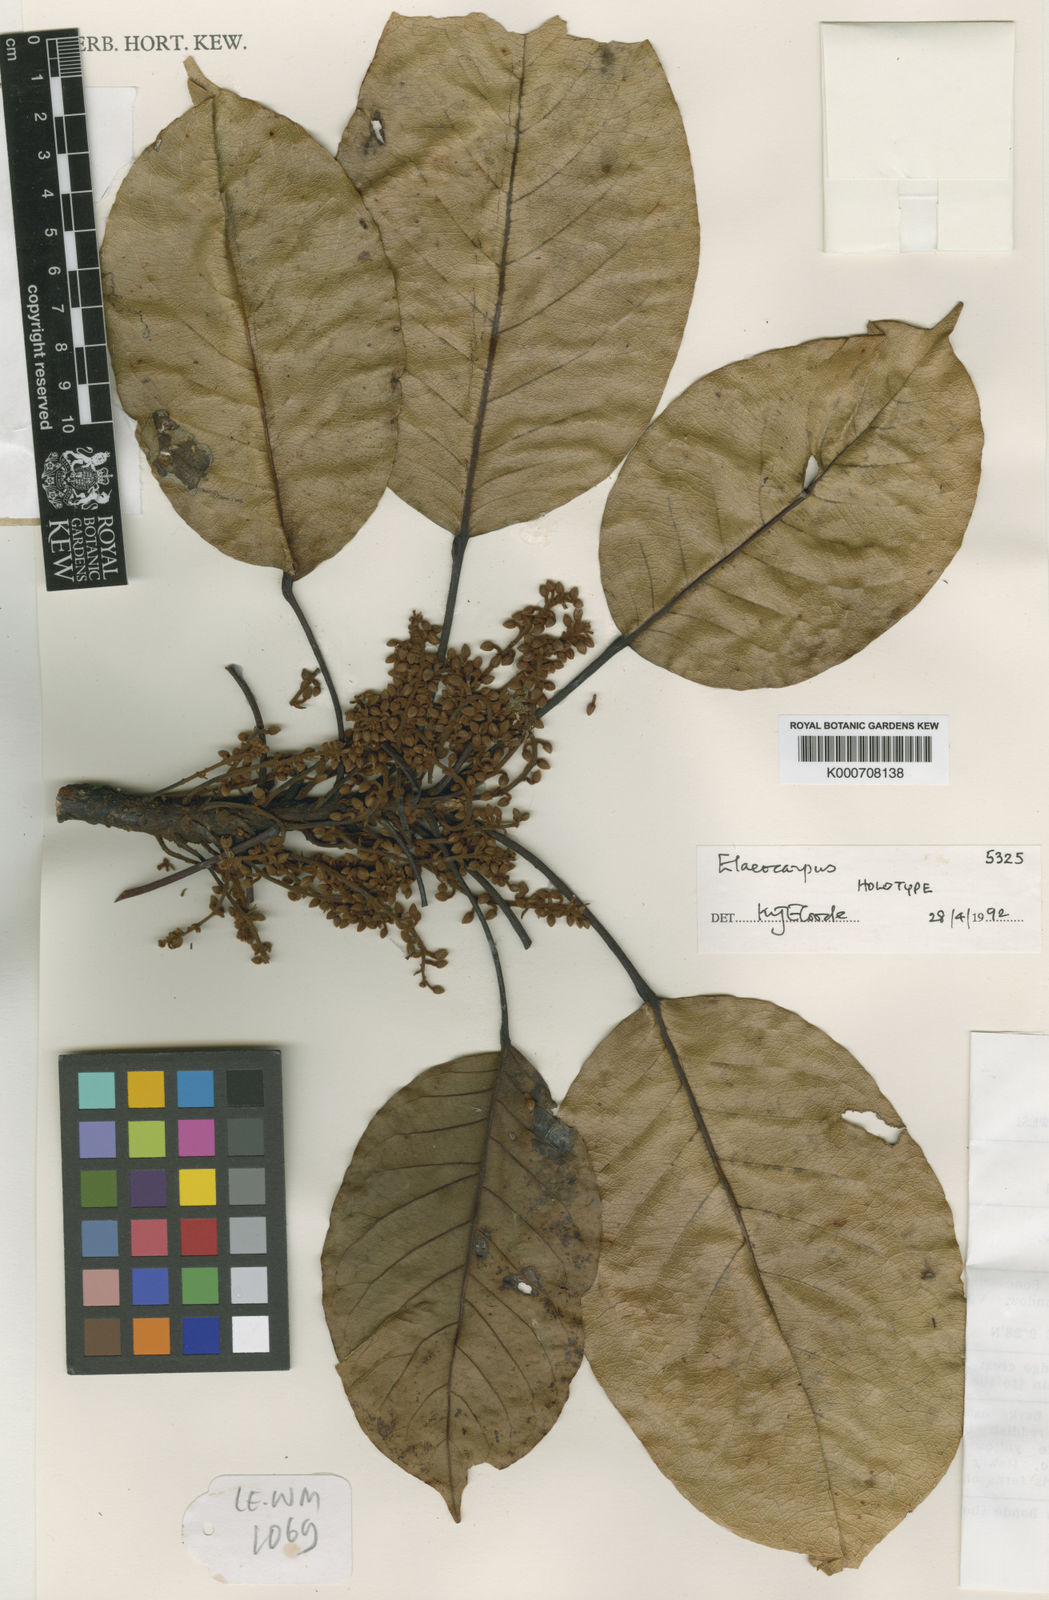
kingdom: Plantae
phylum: Tracheophyta
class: Magnoliopsida
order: Oxalidales
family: Elaeocarpaceae
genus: Elaeocarpus
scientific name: Elaeocarpus linnaei
